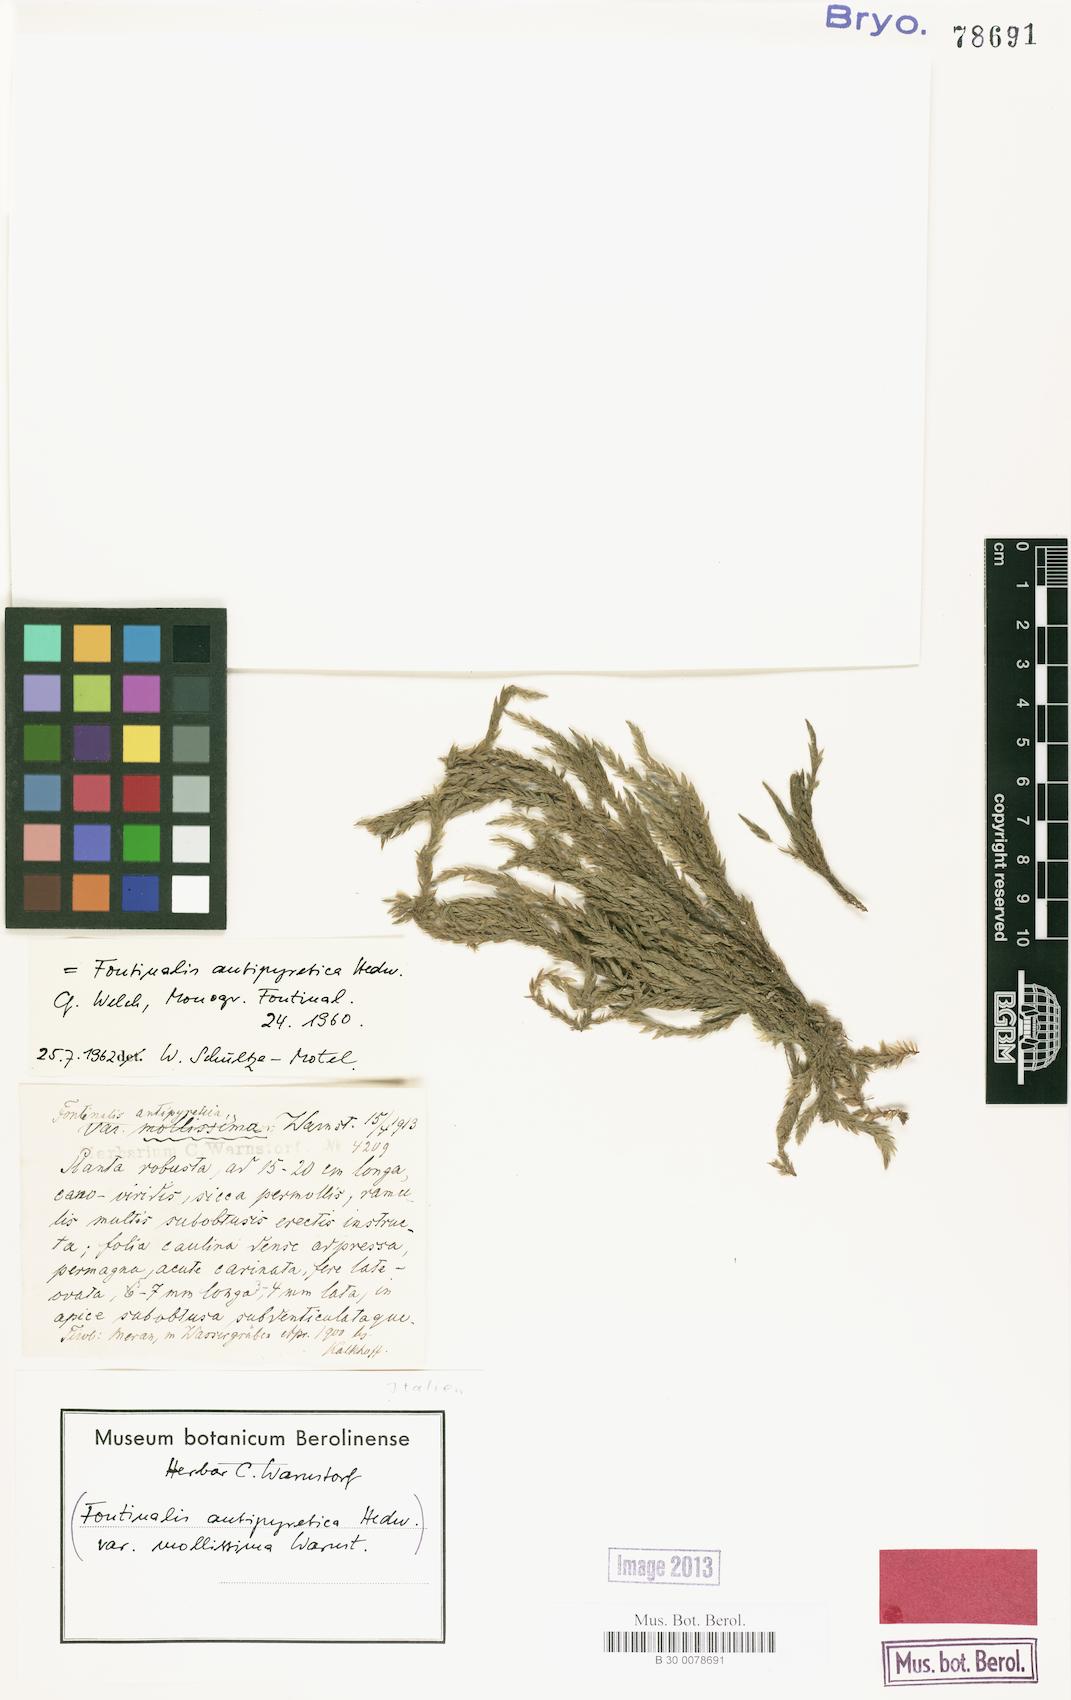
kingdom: Plantae
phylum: Bryophyta
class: Bryopsida
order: Hypnales
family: Fontinalaceae
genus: Fontinalis
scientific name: Fontinalis antipyretica
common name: Greater water-moss
